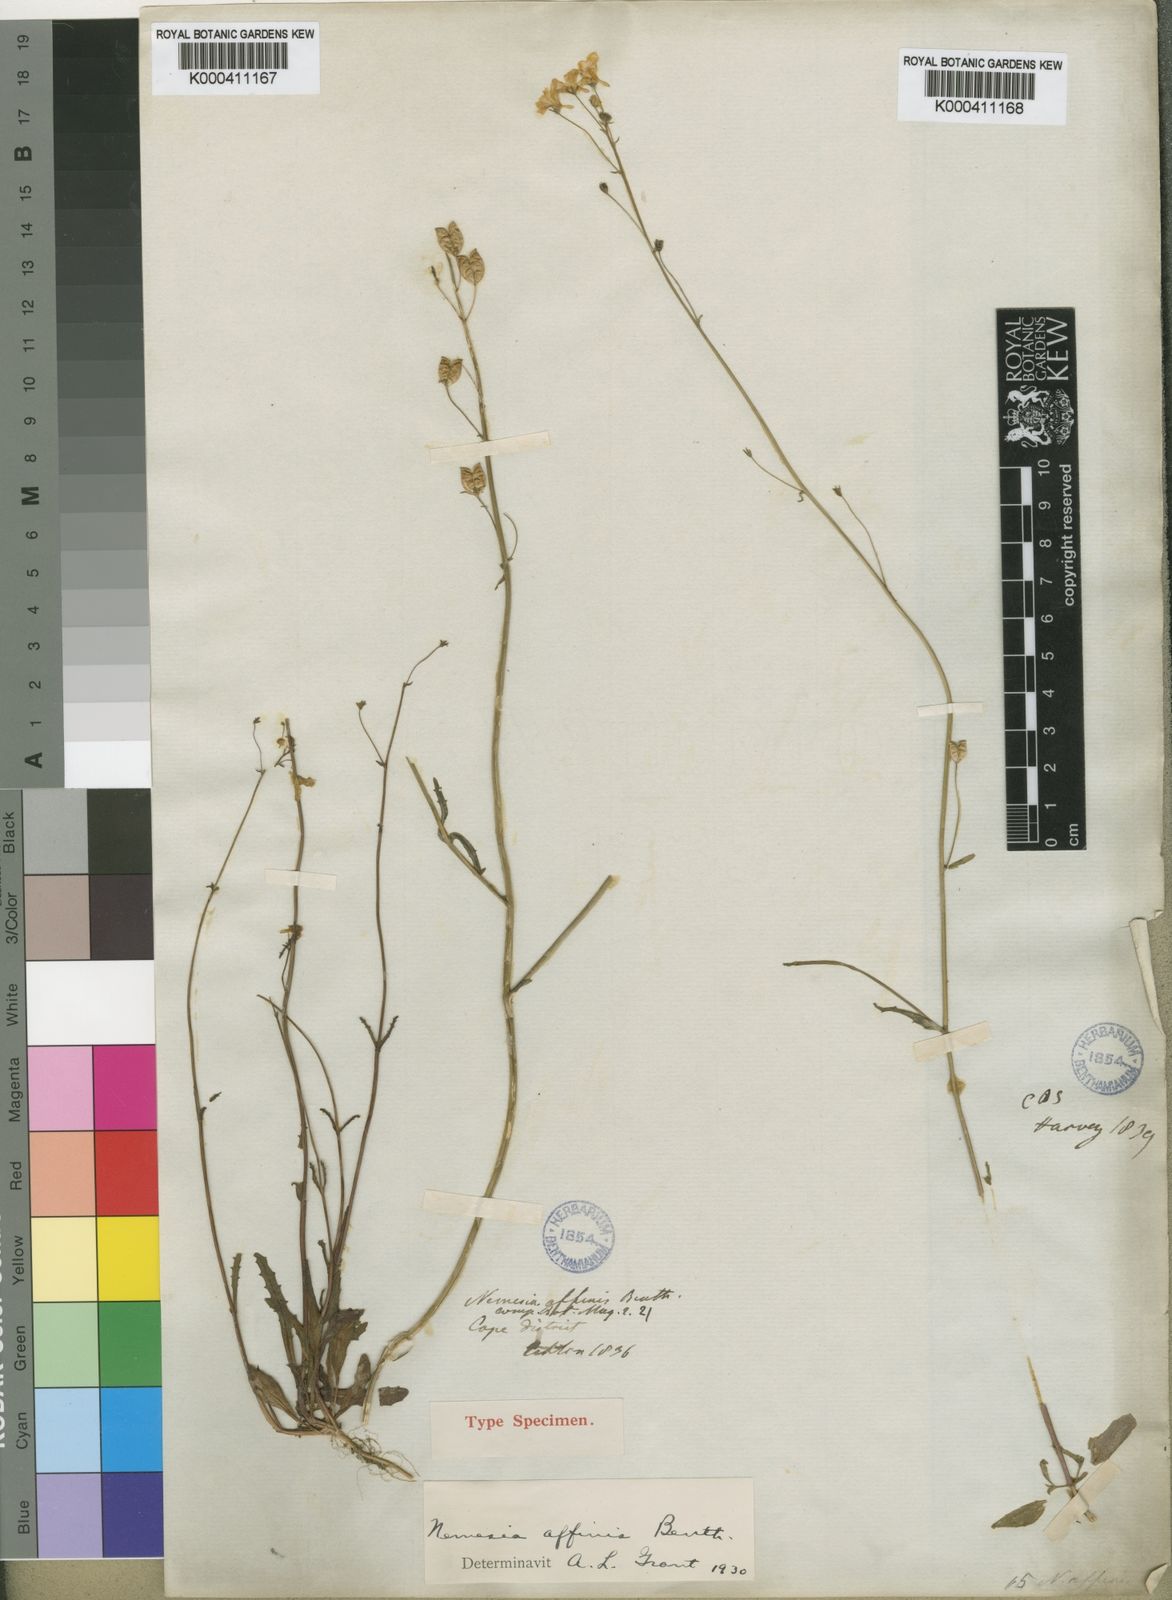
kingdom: Plantae
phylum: Tracheophyta
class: Magnoliopsida
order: Lamiales
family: Scrophulariaceae
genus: Nemesia
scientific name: Nemesia affinis
